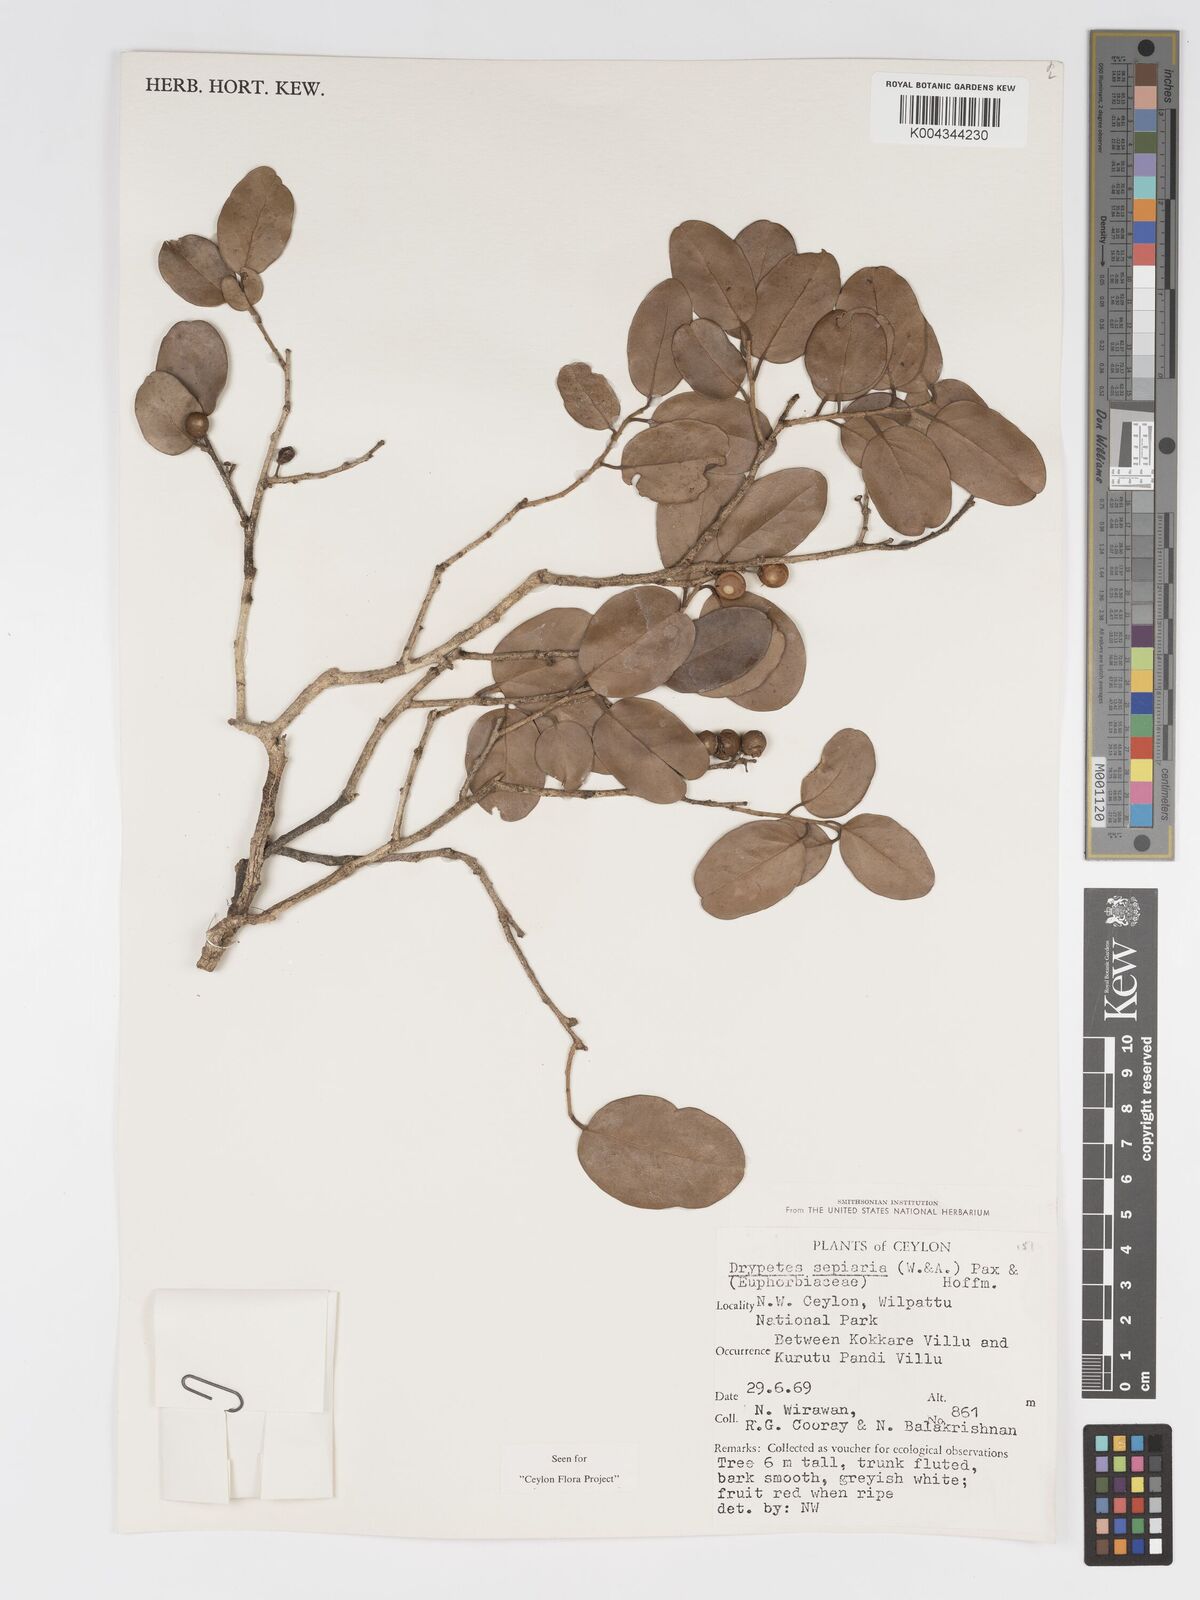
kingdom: Plantae
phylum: Tracheophyta
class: Magnoliopsida
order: Malpighiales
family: Putranjivaceae
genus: Drypetes
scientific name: Drypetes sepiaria
